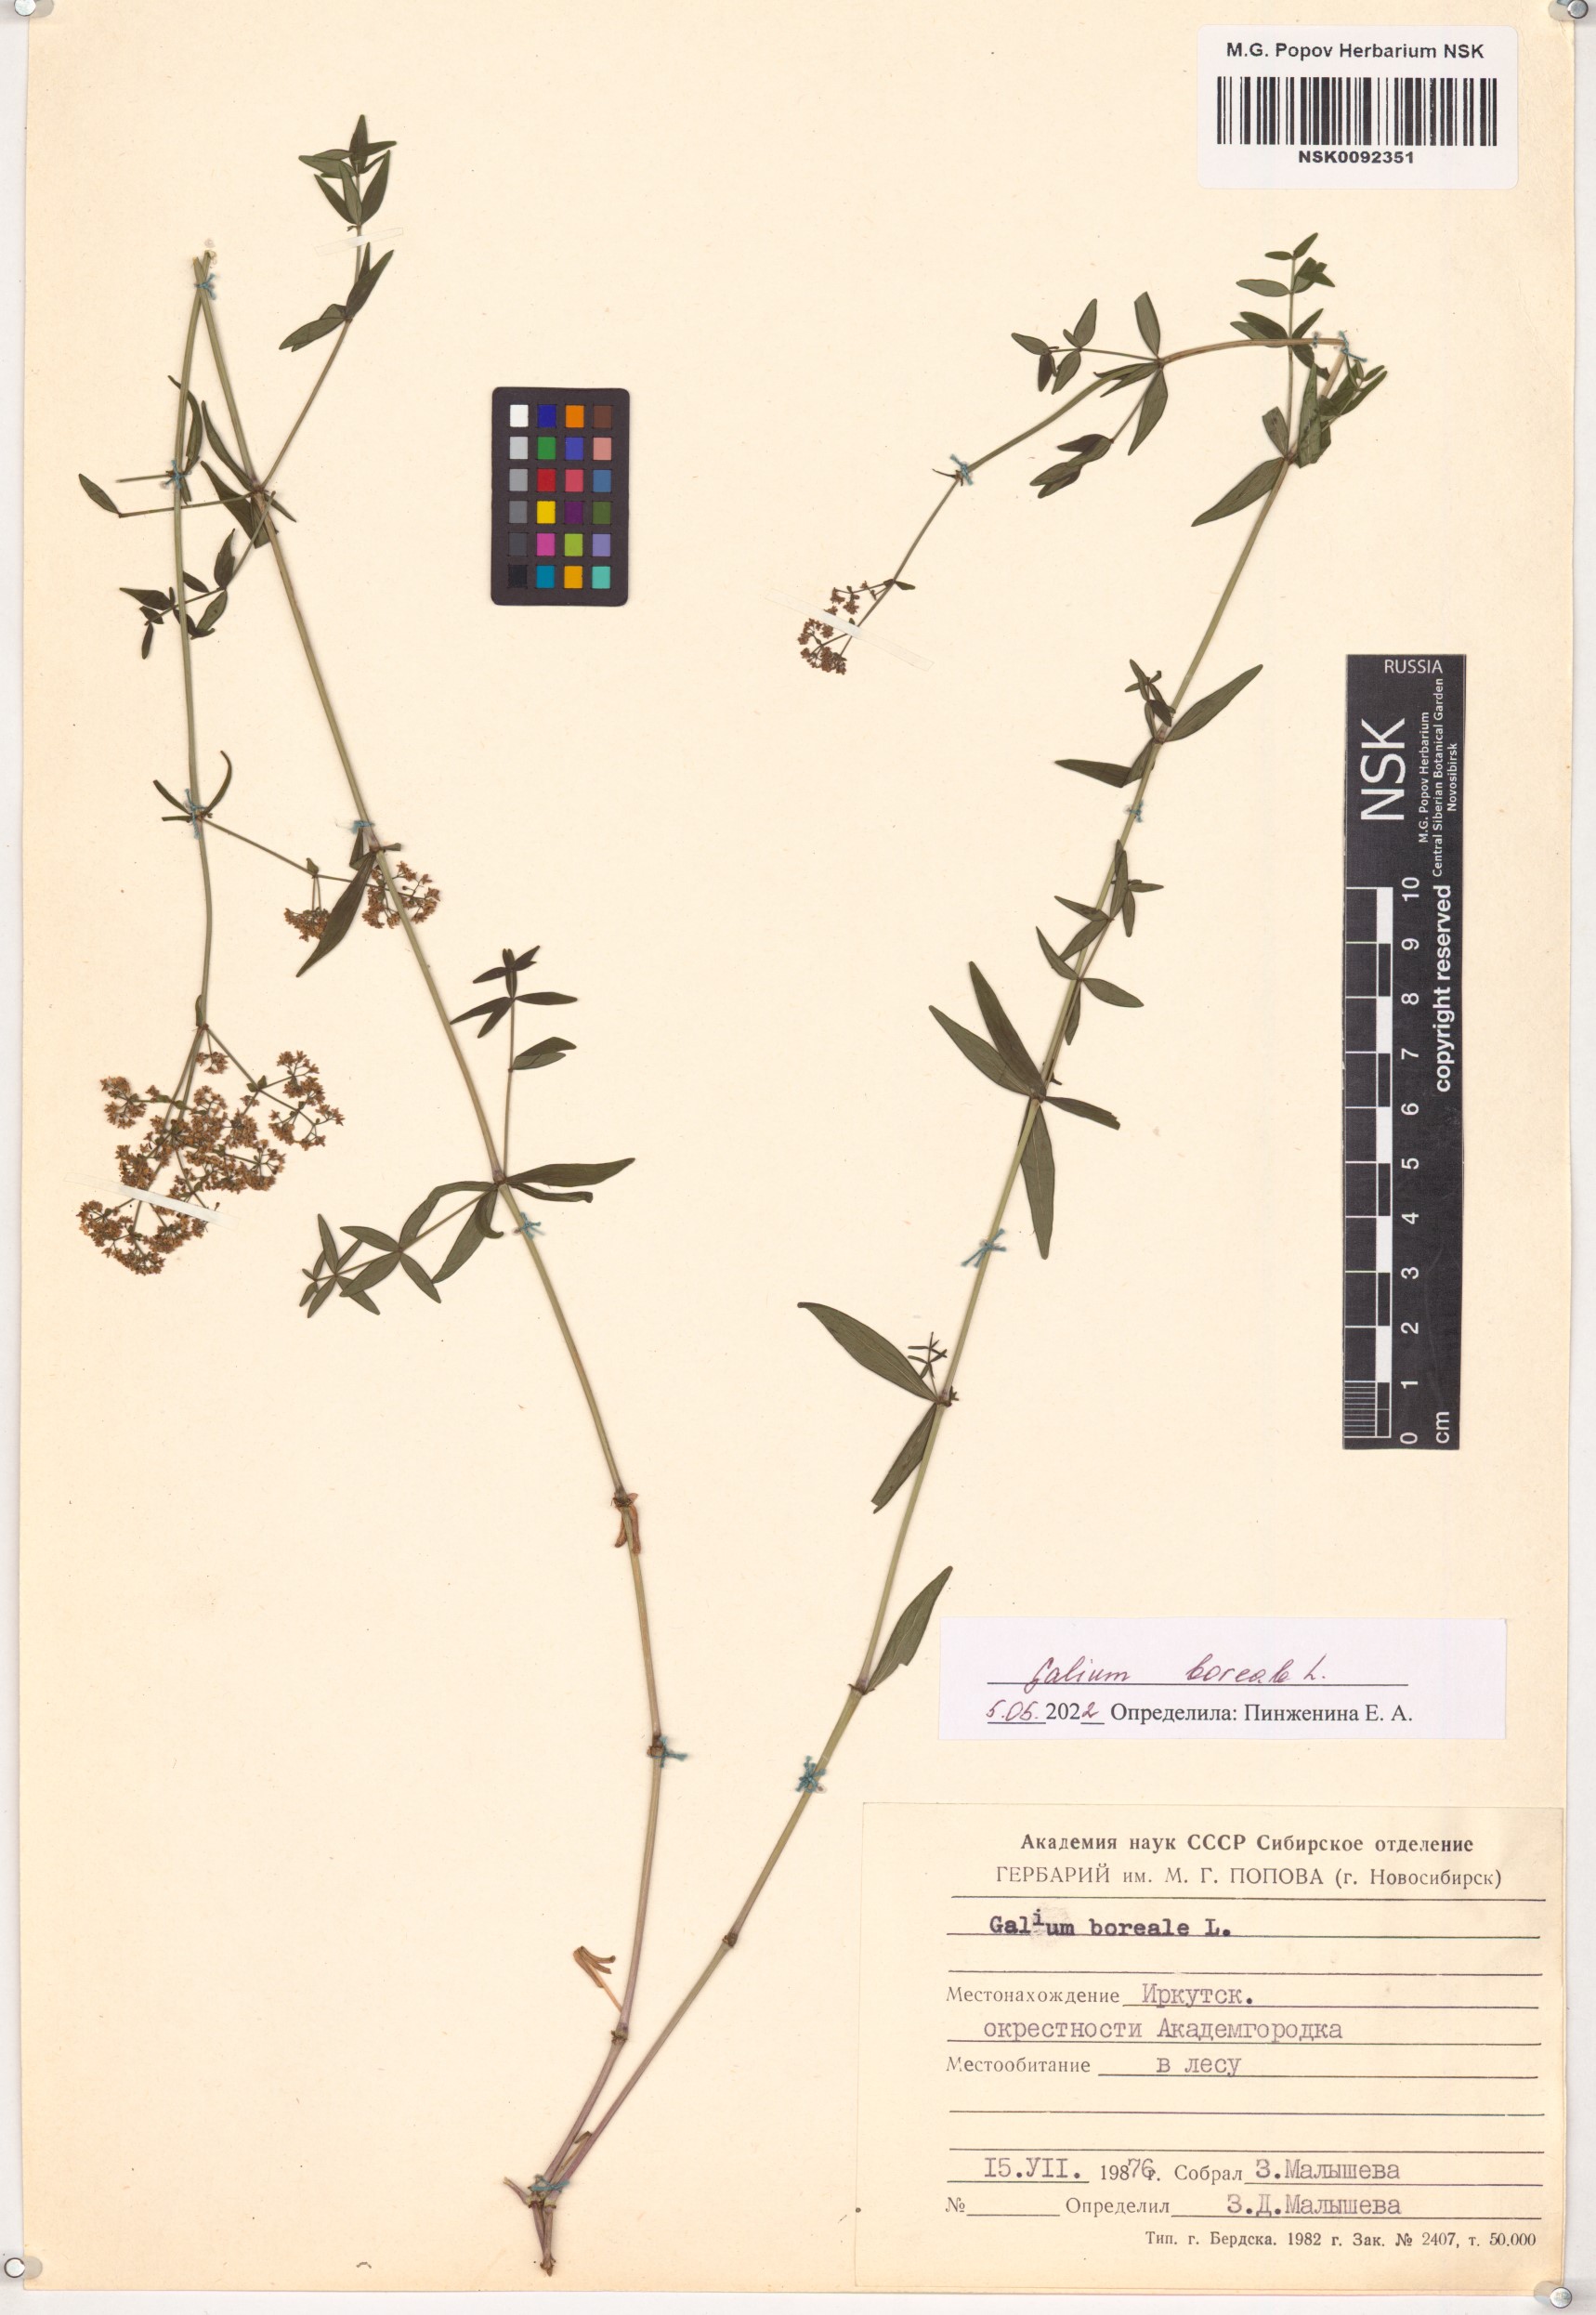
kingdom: Plantae
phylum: Tracheophyta
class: Magnoliopsida
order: Gentianales
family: Rubiaceae
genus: Galium
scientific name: Galium boreale
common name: Northern bedstraw
